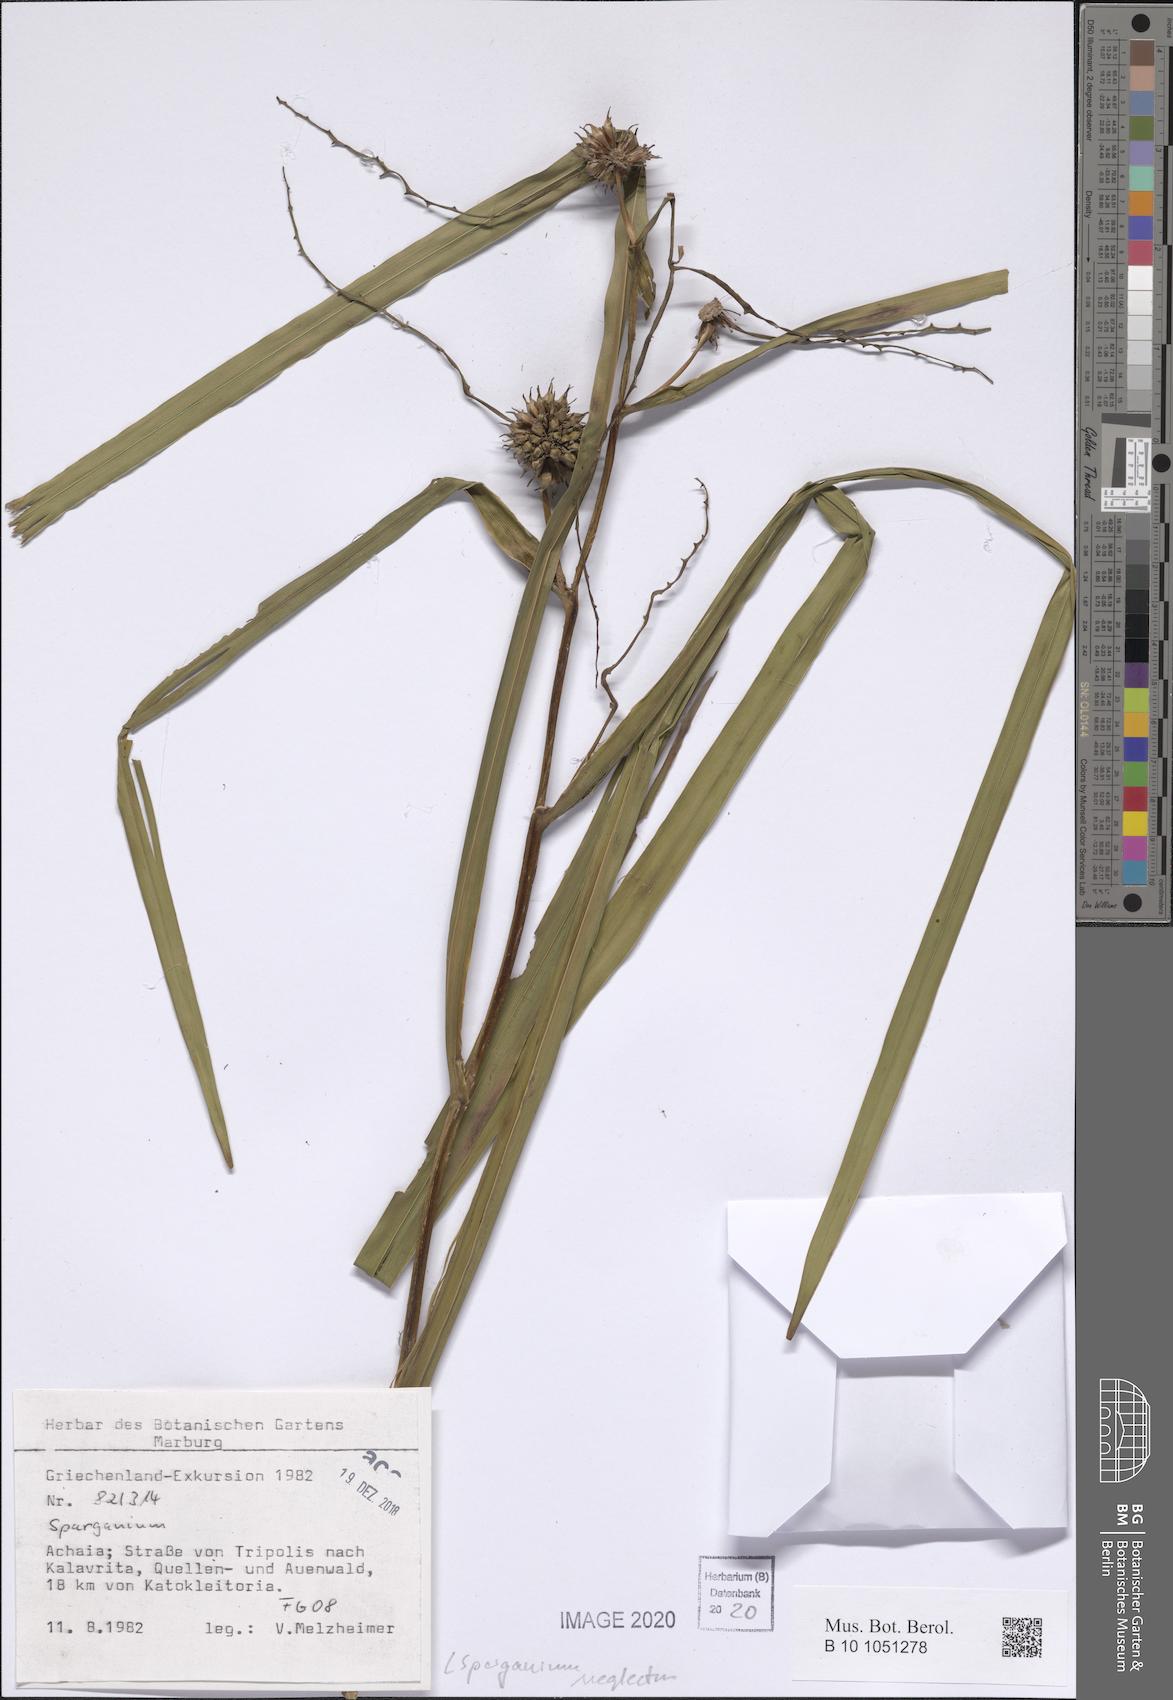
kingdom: Plantae
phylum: Tracheophyta
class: Liliopsida
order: Poales
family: Typhaceae
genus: Sparganium
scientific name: Sparganium erectum
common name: Branched bur-reed
